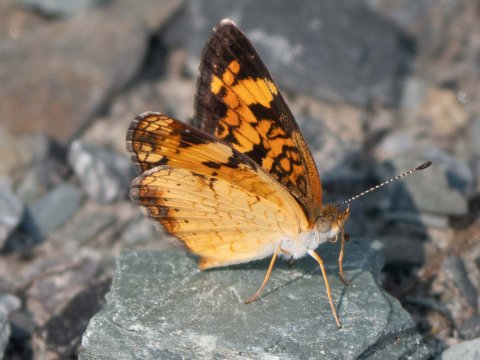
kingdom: Animalia
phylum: Arthropoda
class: Insecta
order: Lepidoptera
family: Nymphalidae
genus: Phyciodes
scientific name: Phyciodes
